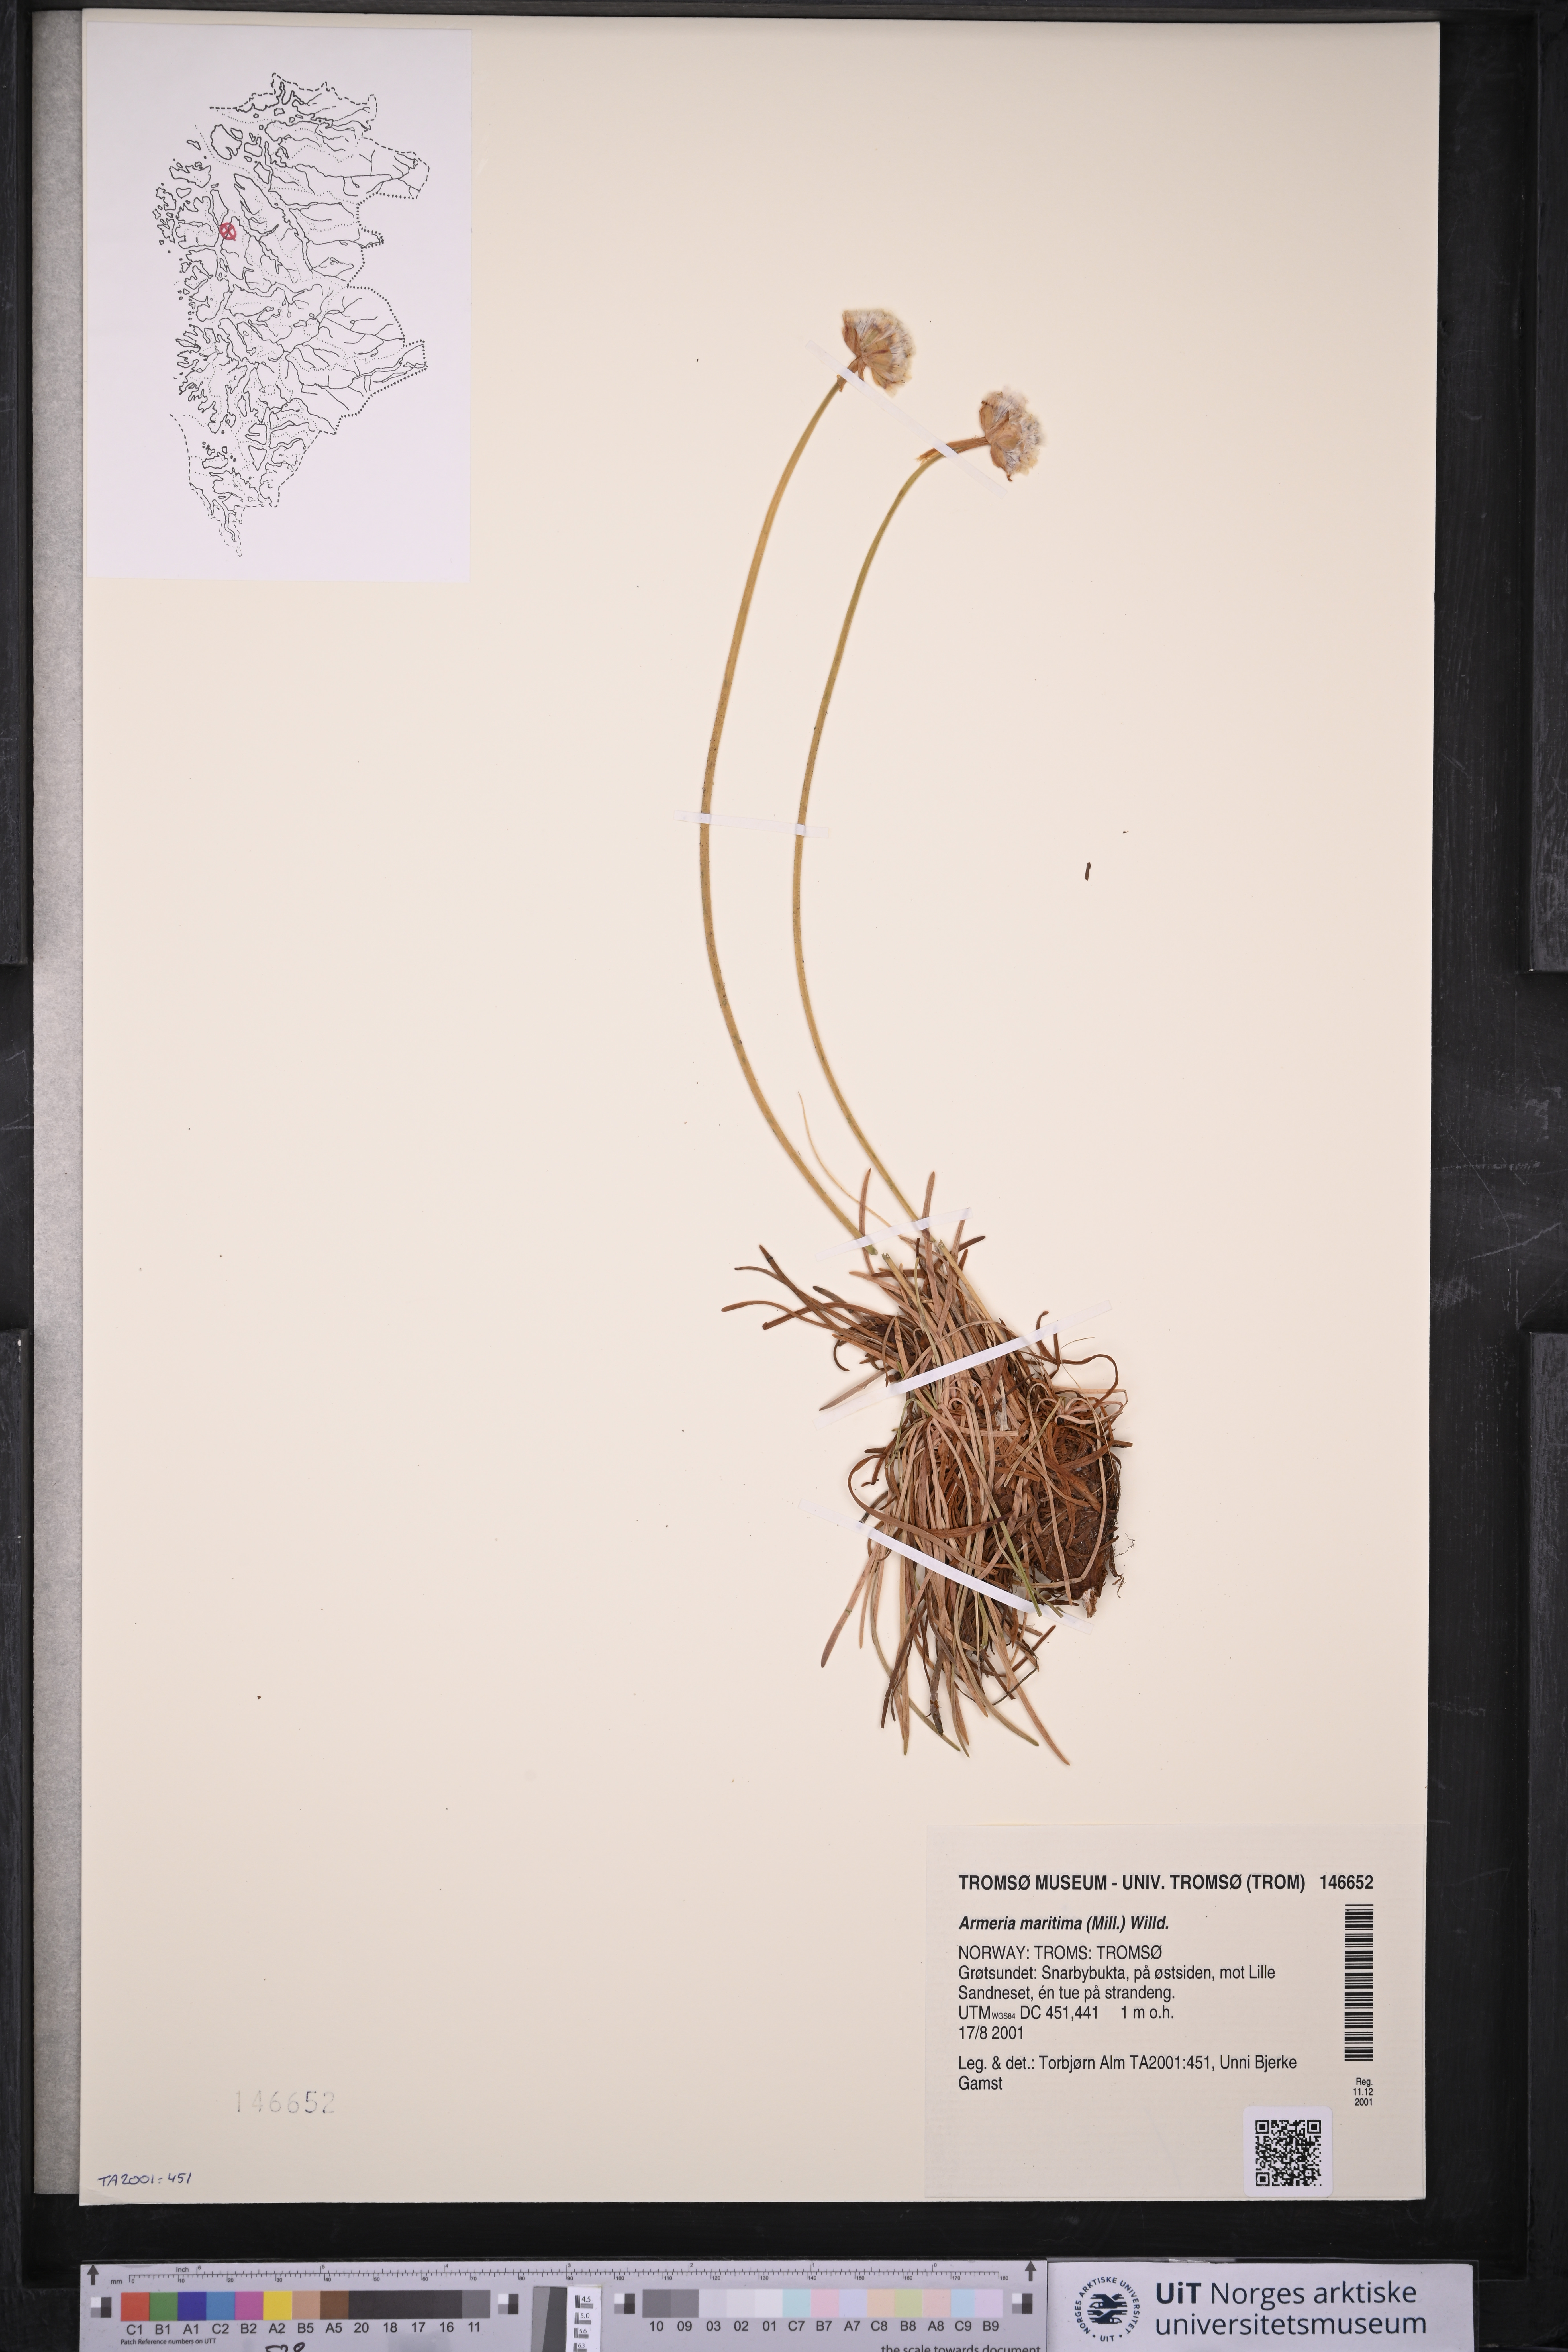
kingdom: Plantae
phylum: Tracheophyta
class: Magnoliopsida
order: Caryophyllales
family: Plumbaginaceae
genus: Armeria
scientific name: Armeria maritima
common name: Thrift
